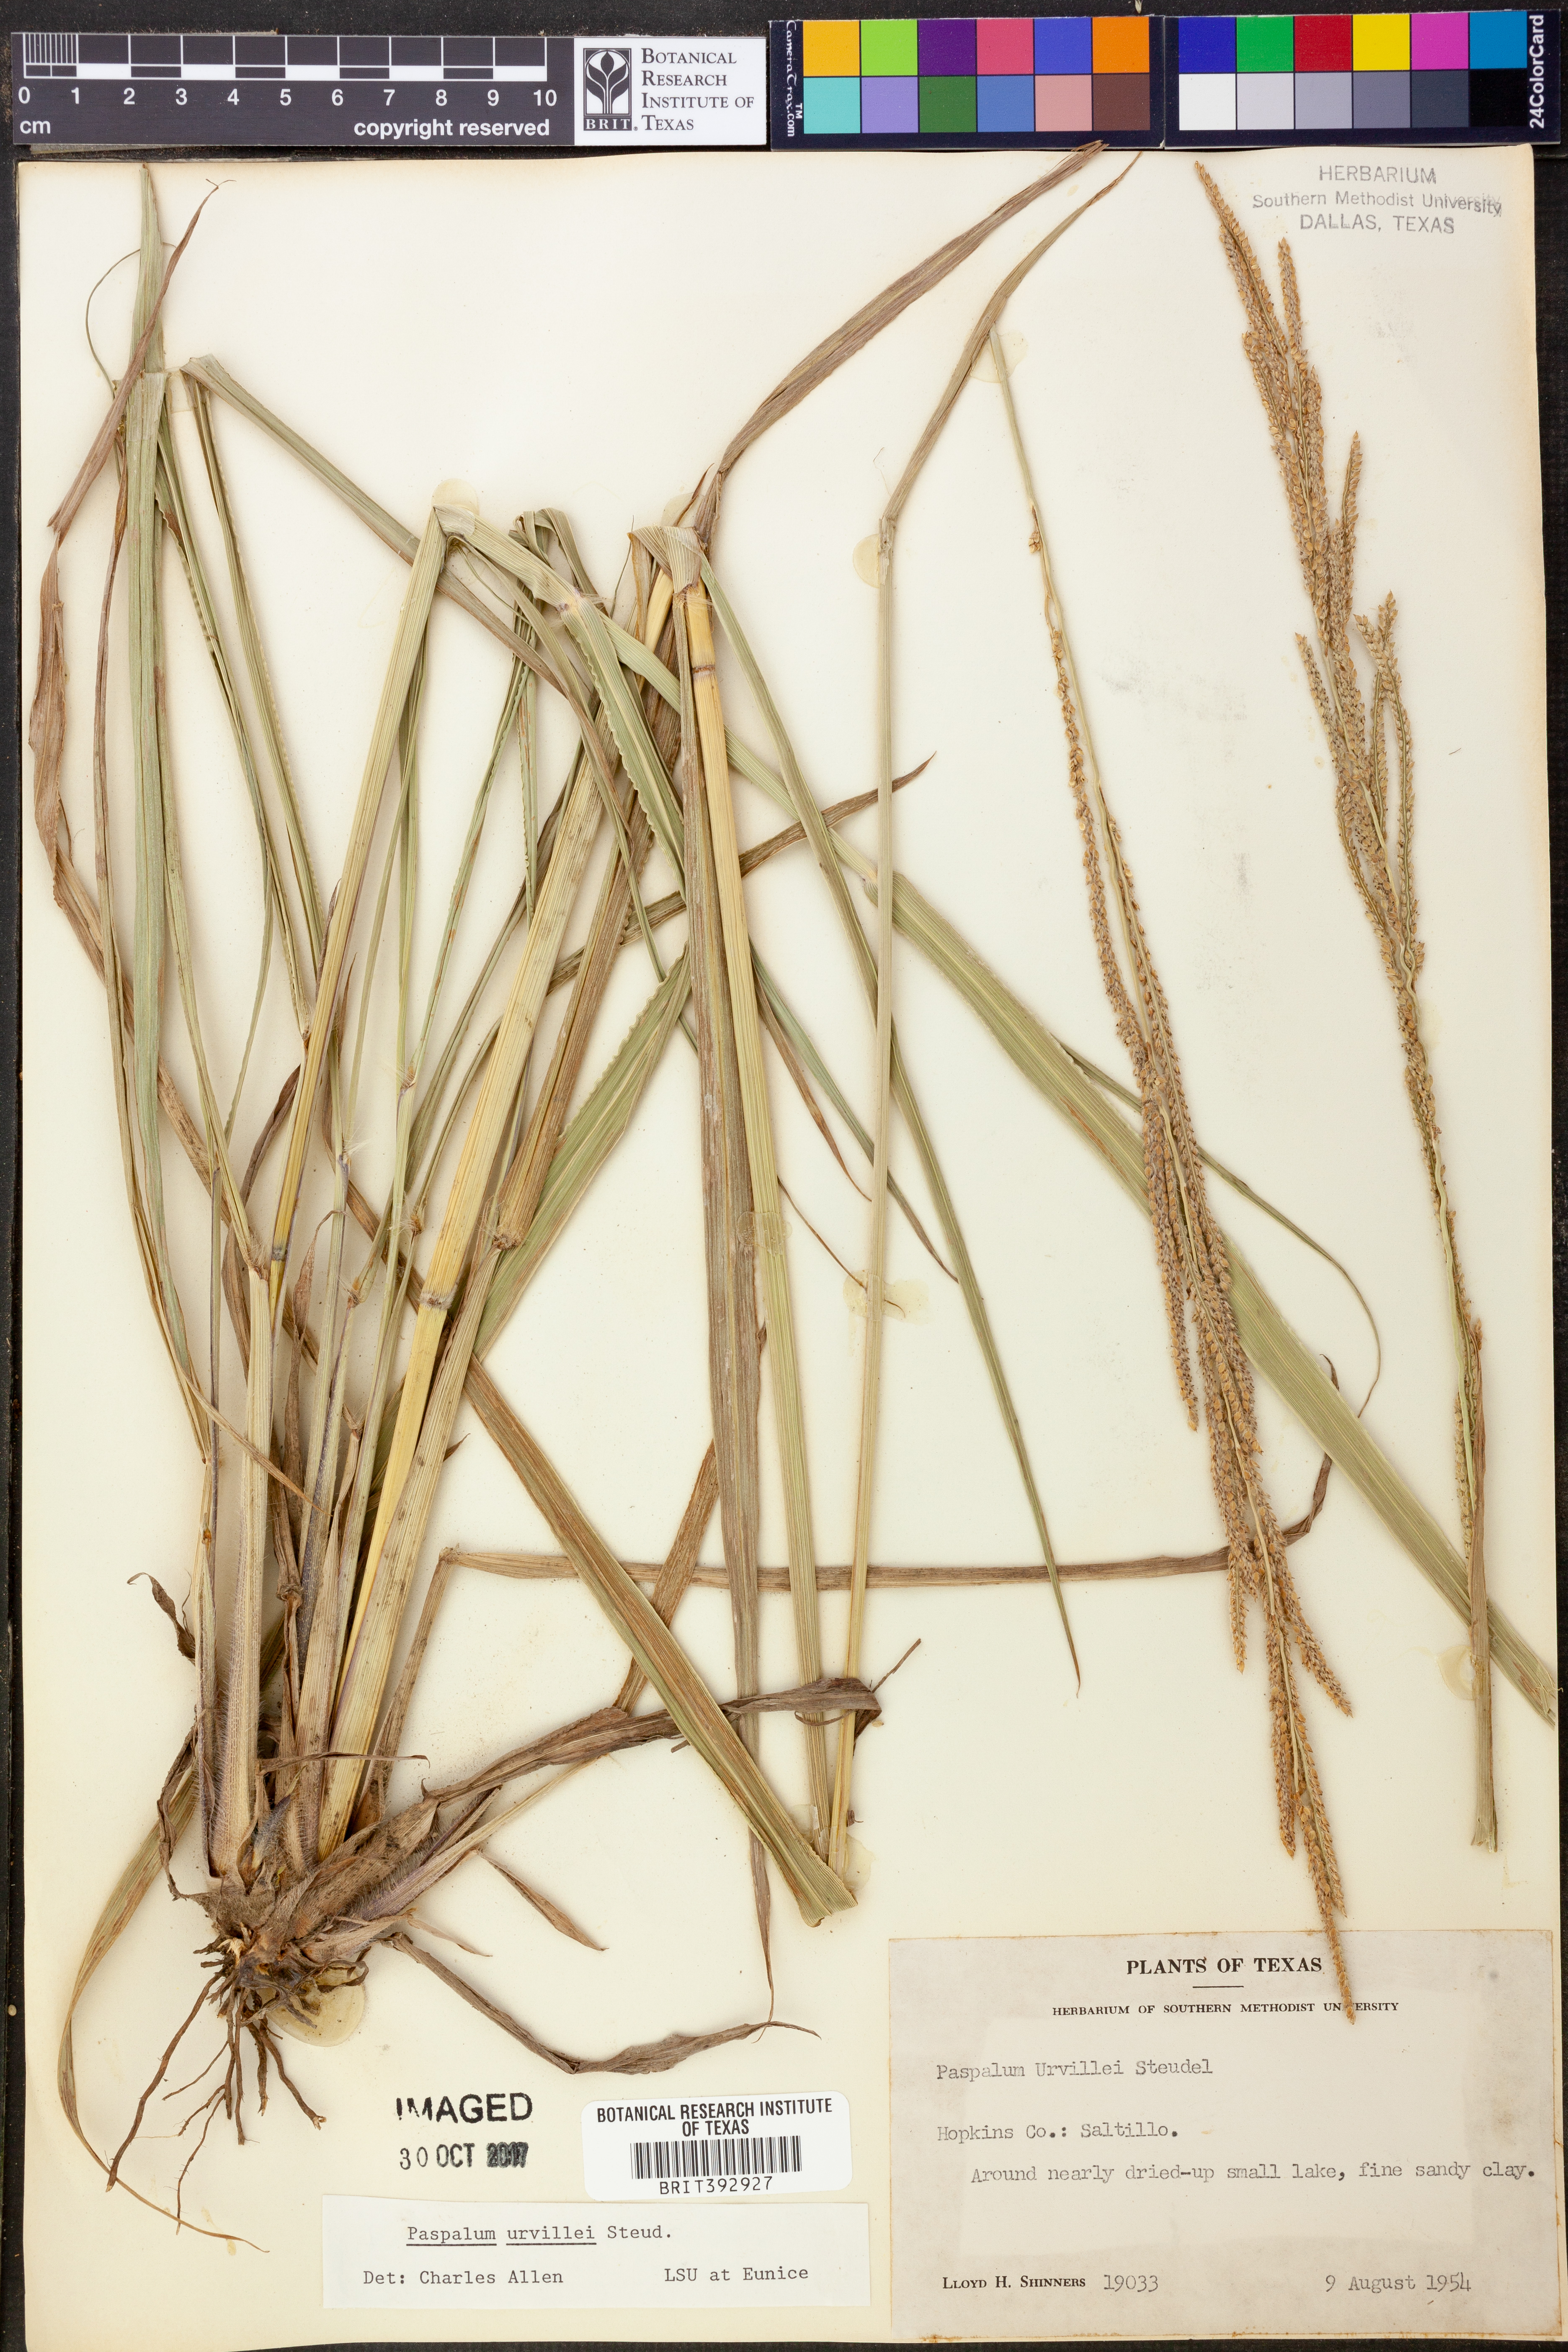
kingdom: Plantae
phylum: Tracheophyta
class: Liliopsida
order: Poales
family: Poaceae
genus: Paspalum
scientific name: Paspalum urvillei
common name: Vasey's grass
